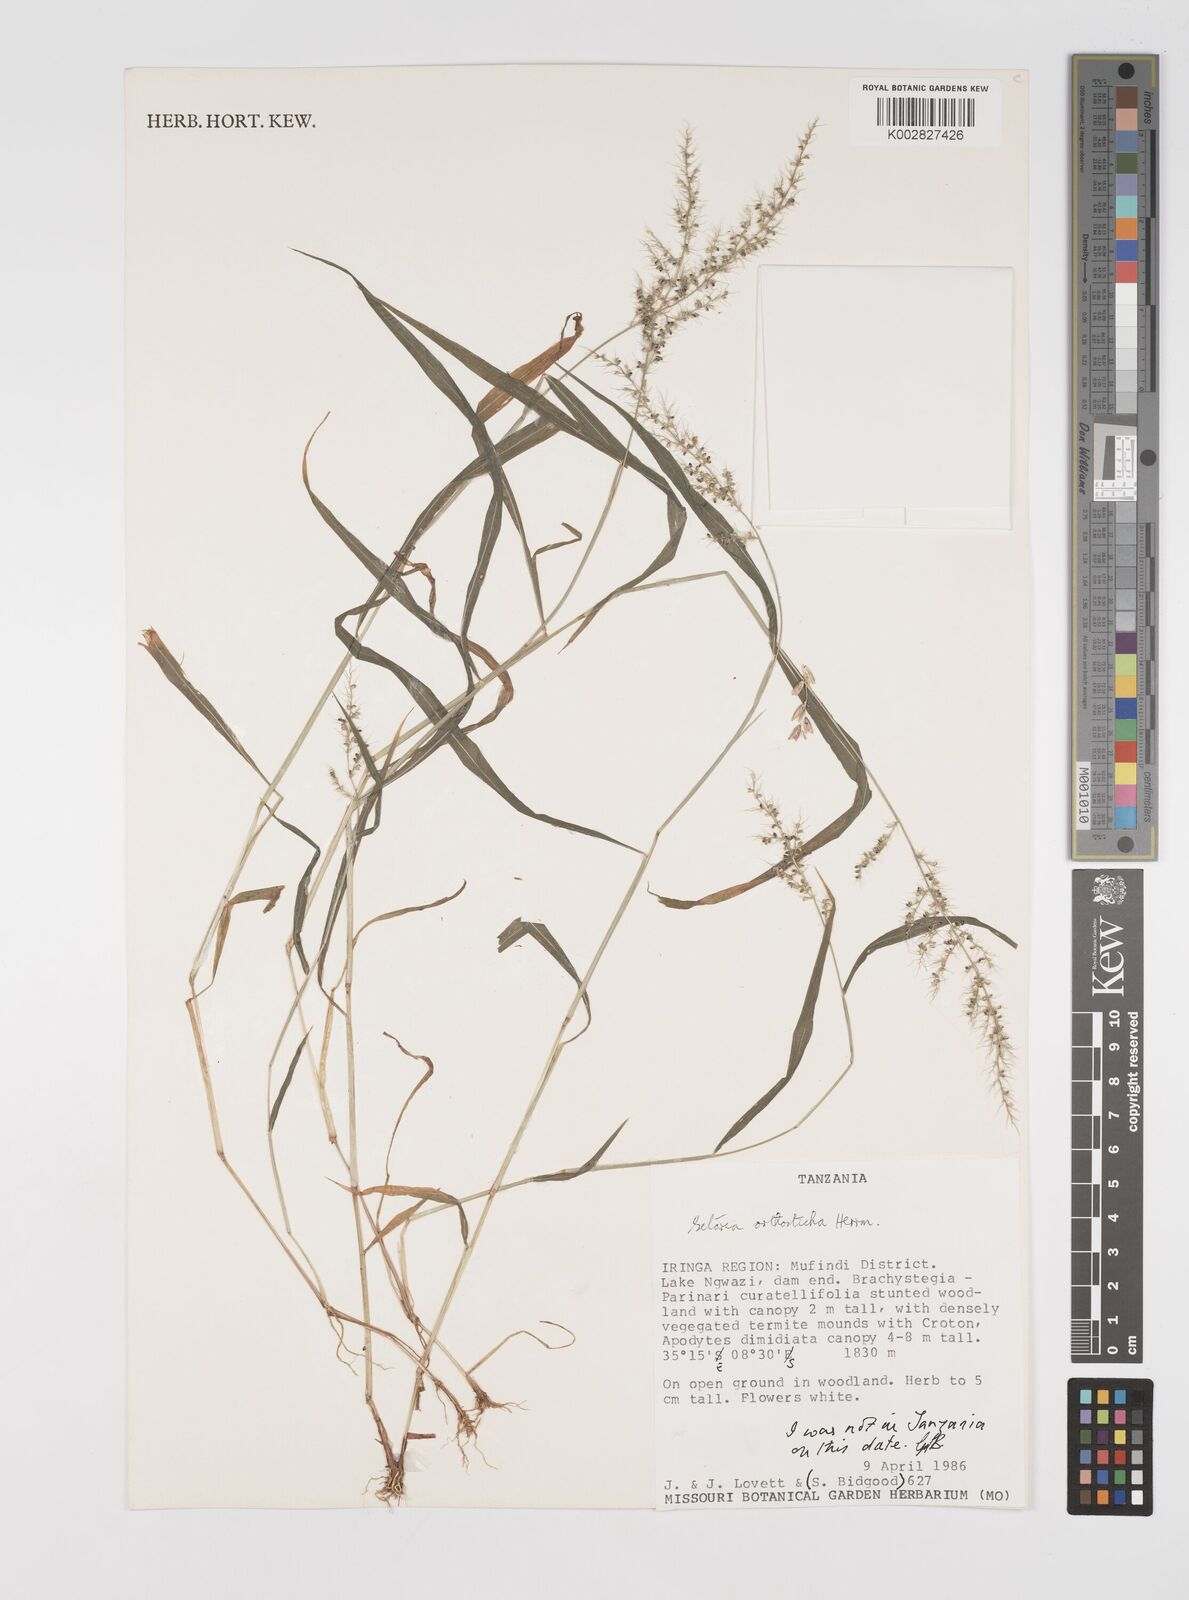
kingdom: Plantae
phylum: Tracheophyta
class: Liliopsida
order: Poales
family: Poaceae
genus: Setaria
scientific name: Setaria orthosticha
